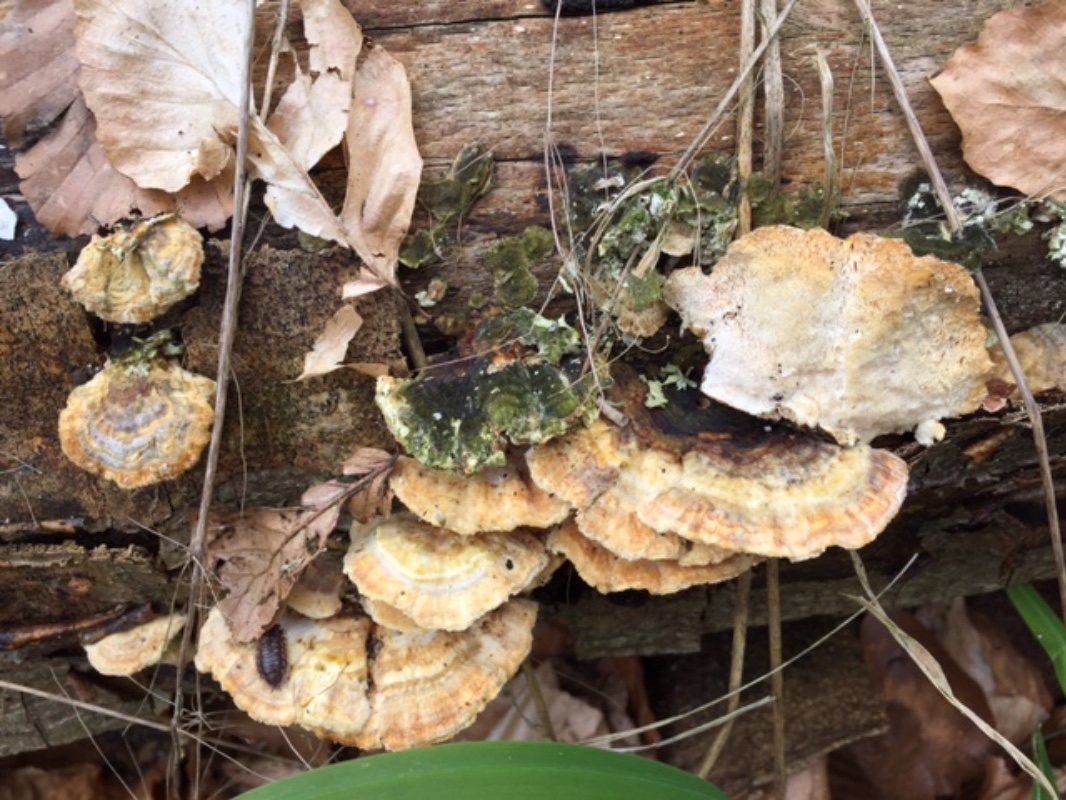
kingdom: Fungi
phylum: Basidiomycota
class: Agaricomycetes
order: Polyporales
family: Polyporaceae
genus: Trametes
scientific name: Trametes versicolor
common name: broget læderporesvamp
